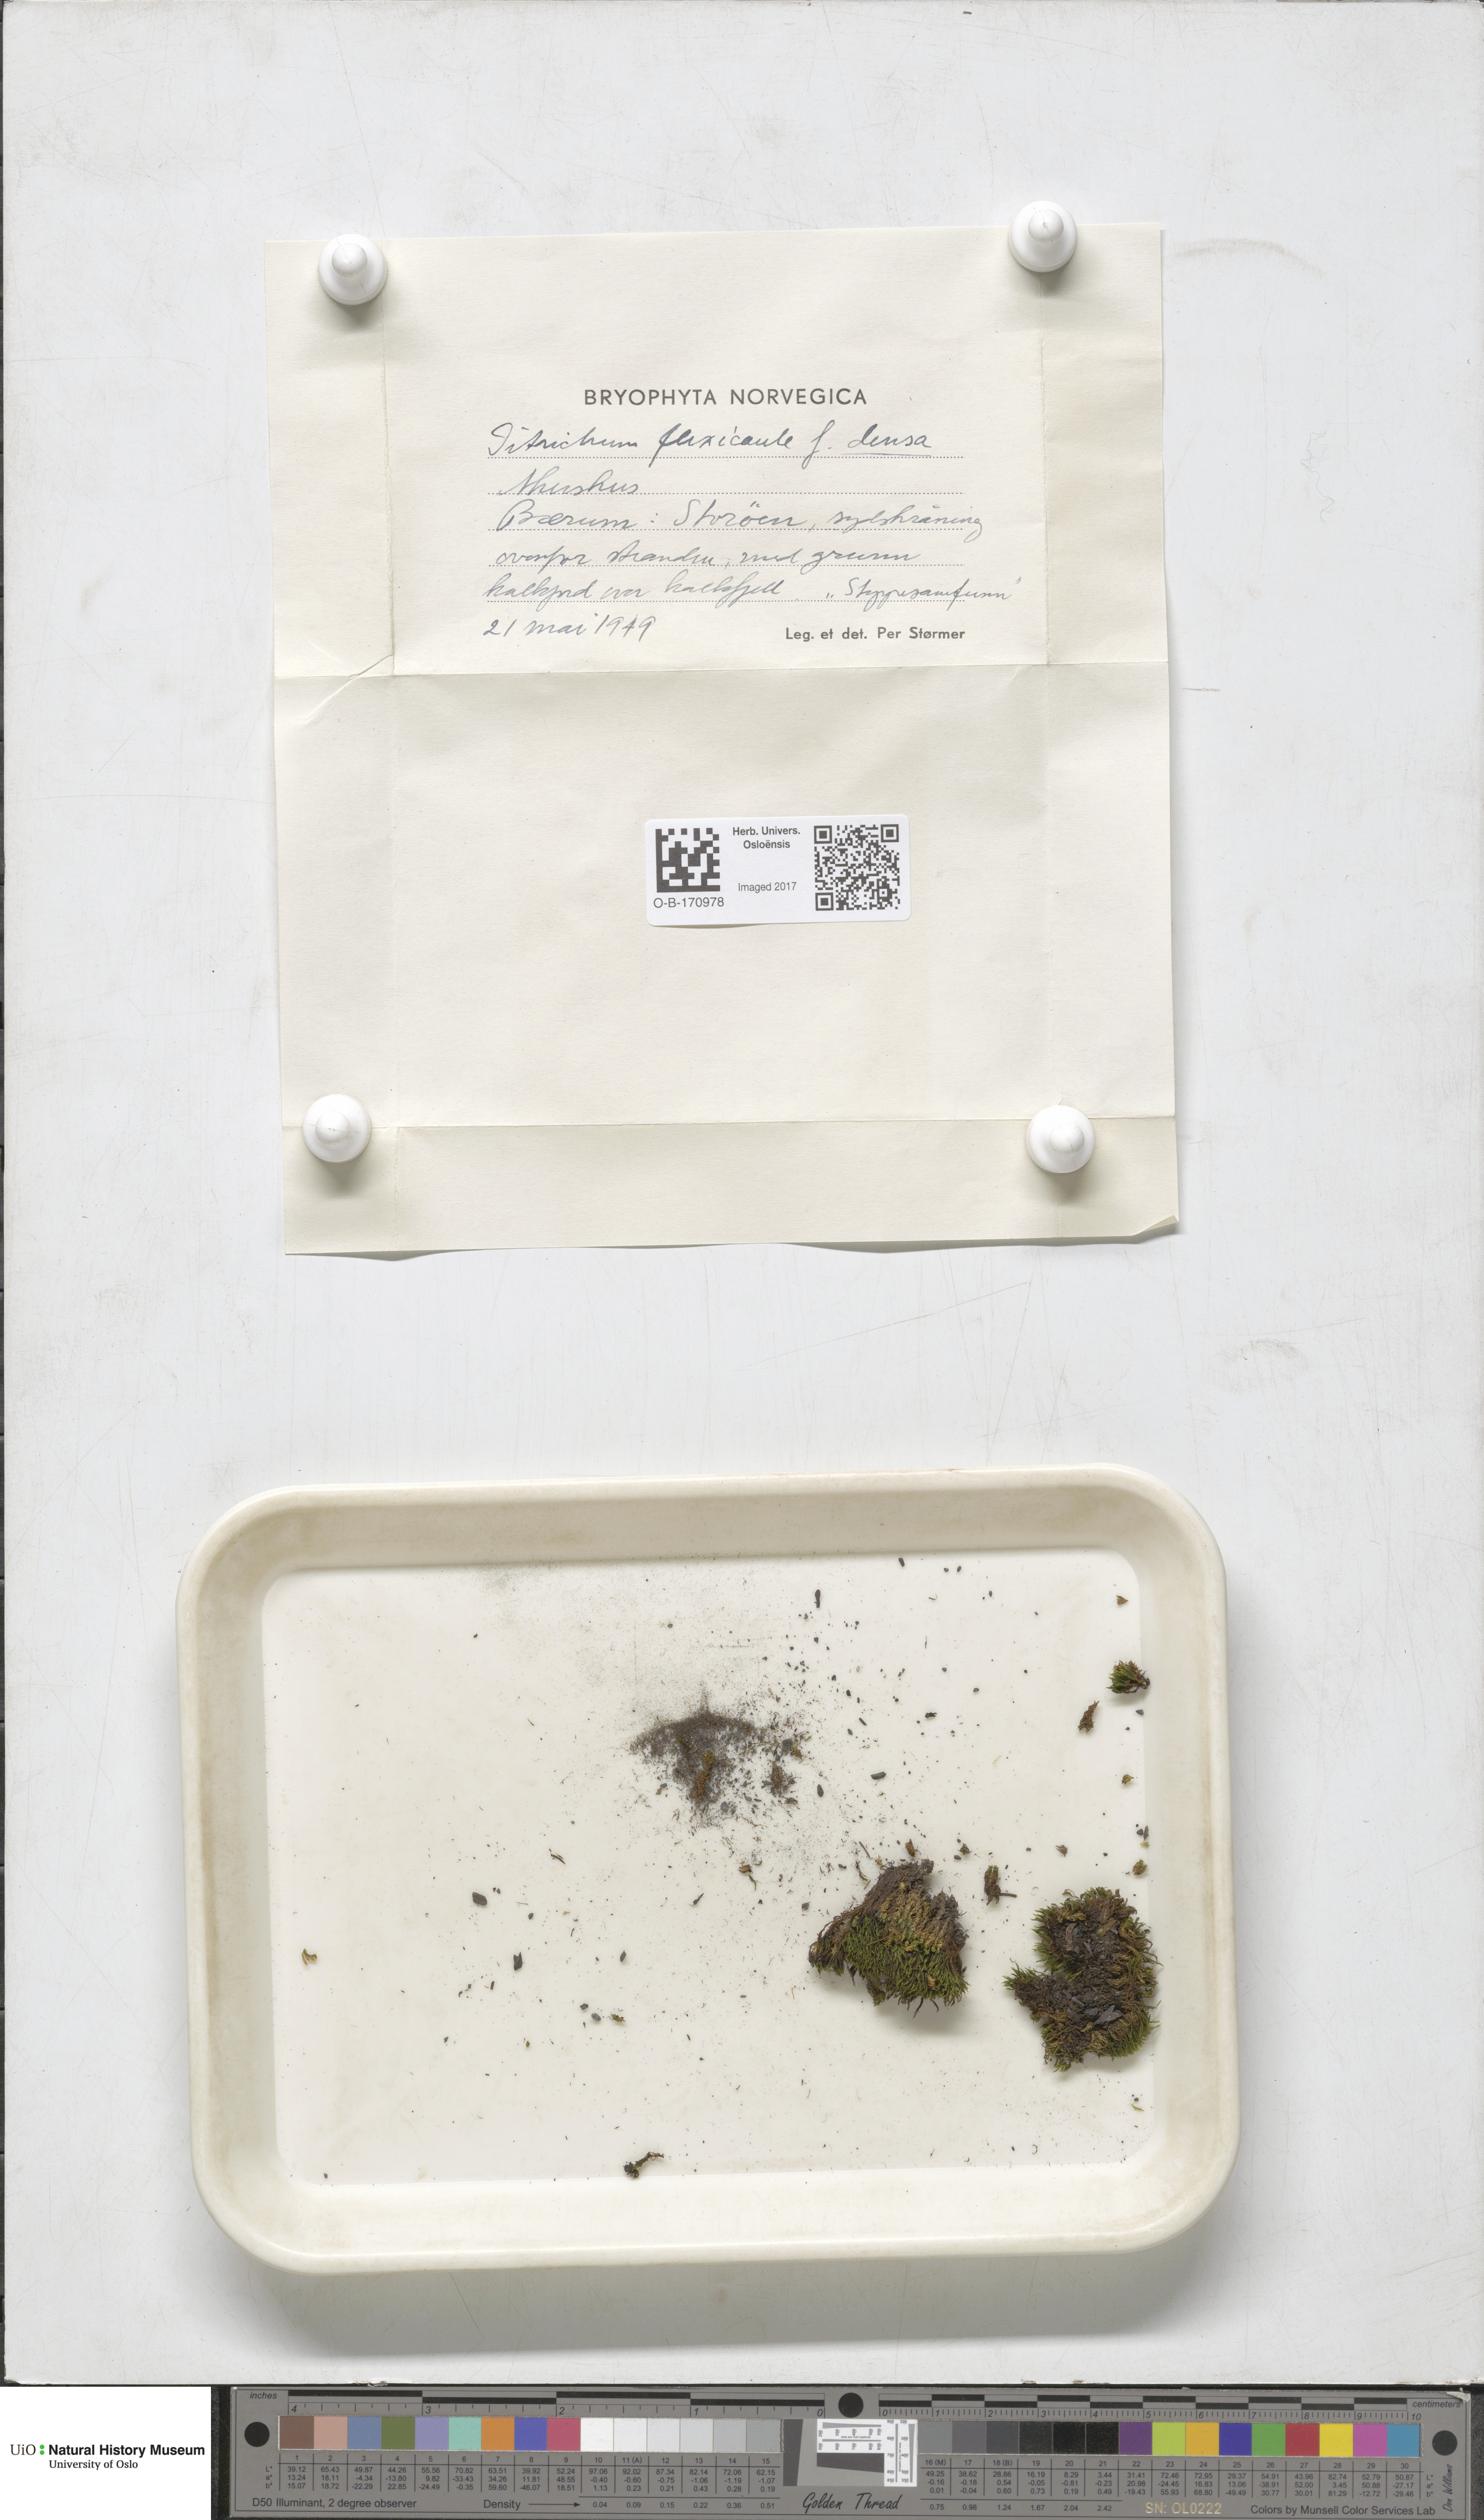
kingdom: Plantae
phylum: Bryophyta
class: Bryopsida
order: Scouleriales
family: Flexitrichaceae
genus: Flexitrichum
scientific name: Flexitrichum flexicaule
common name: Bendy ditrichum
